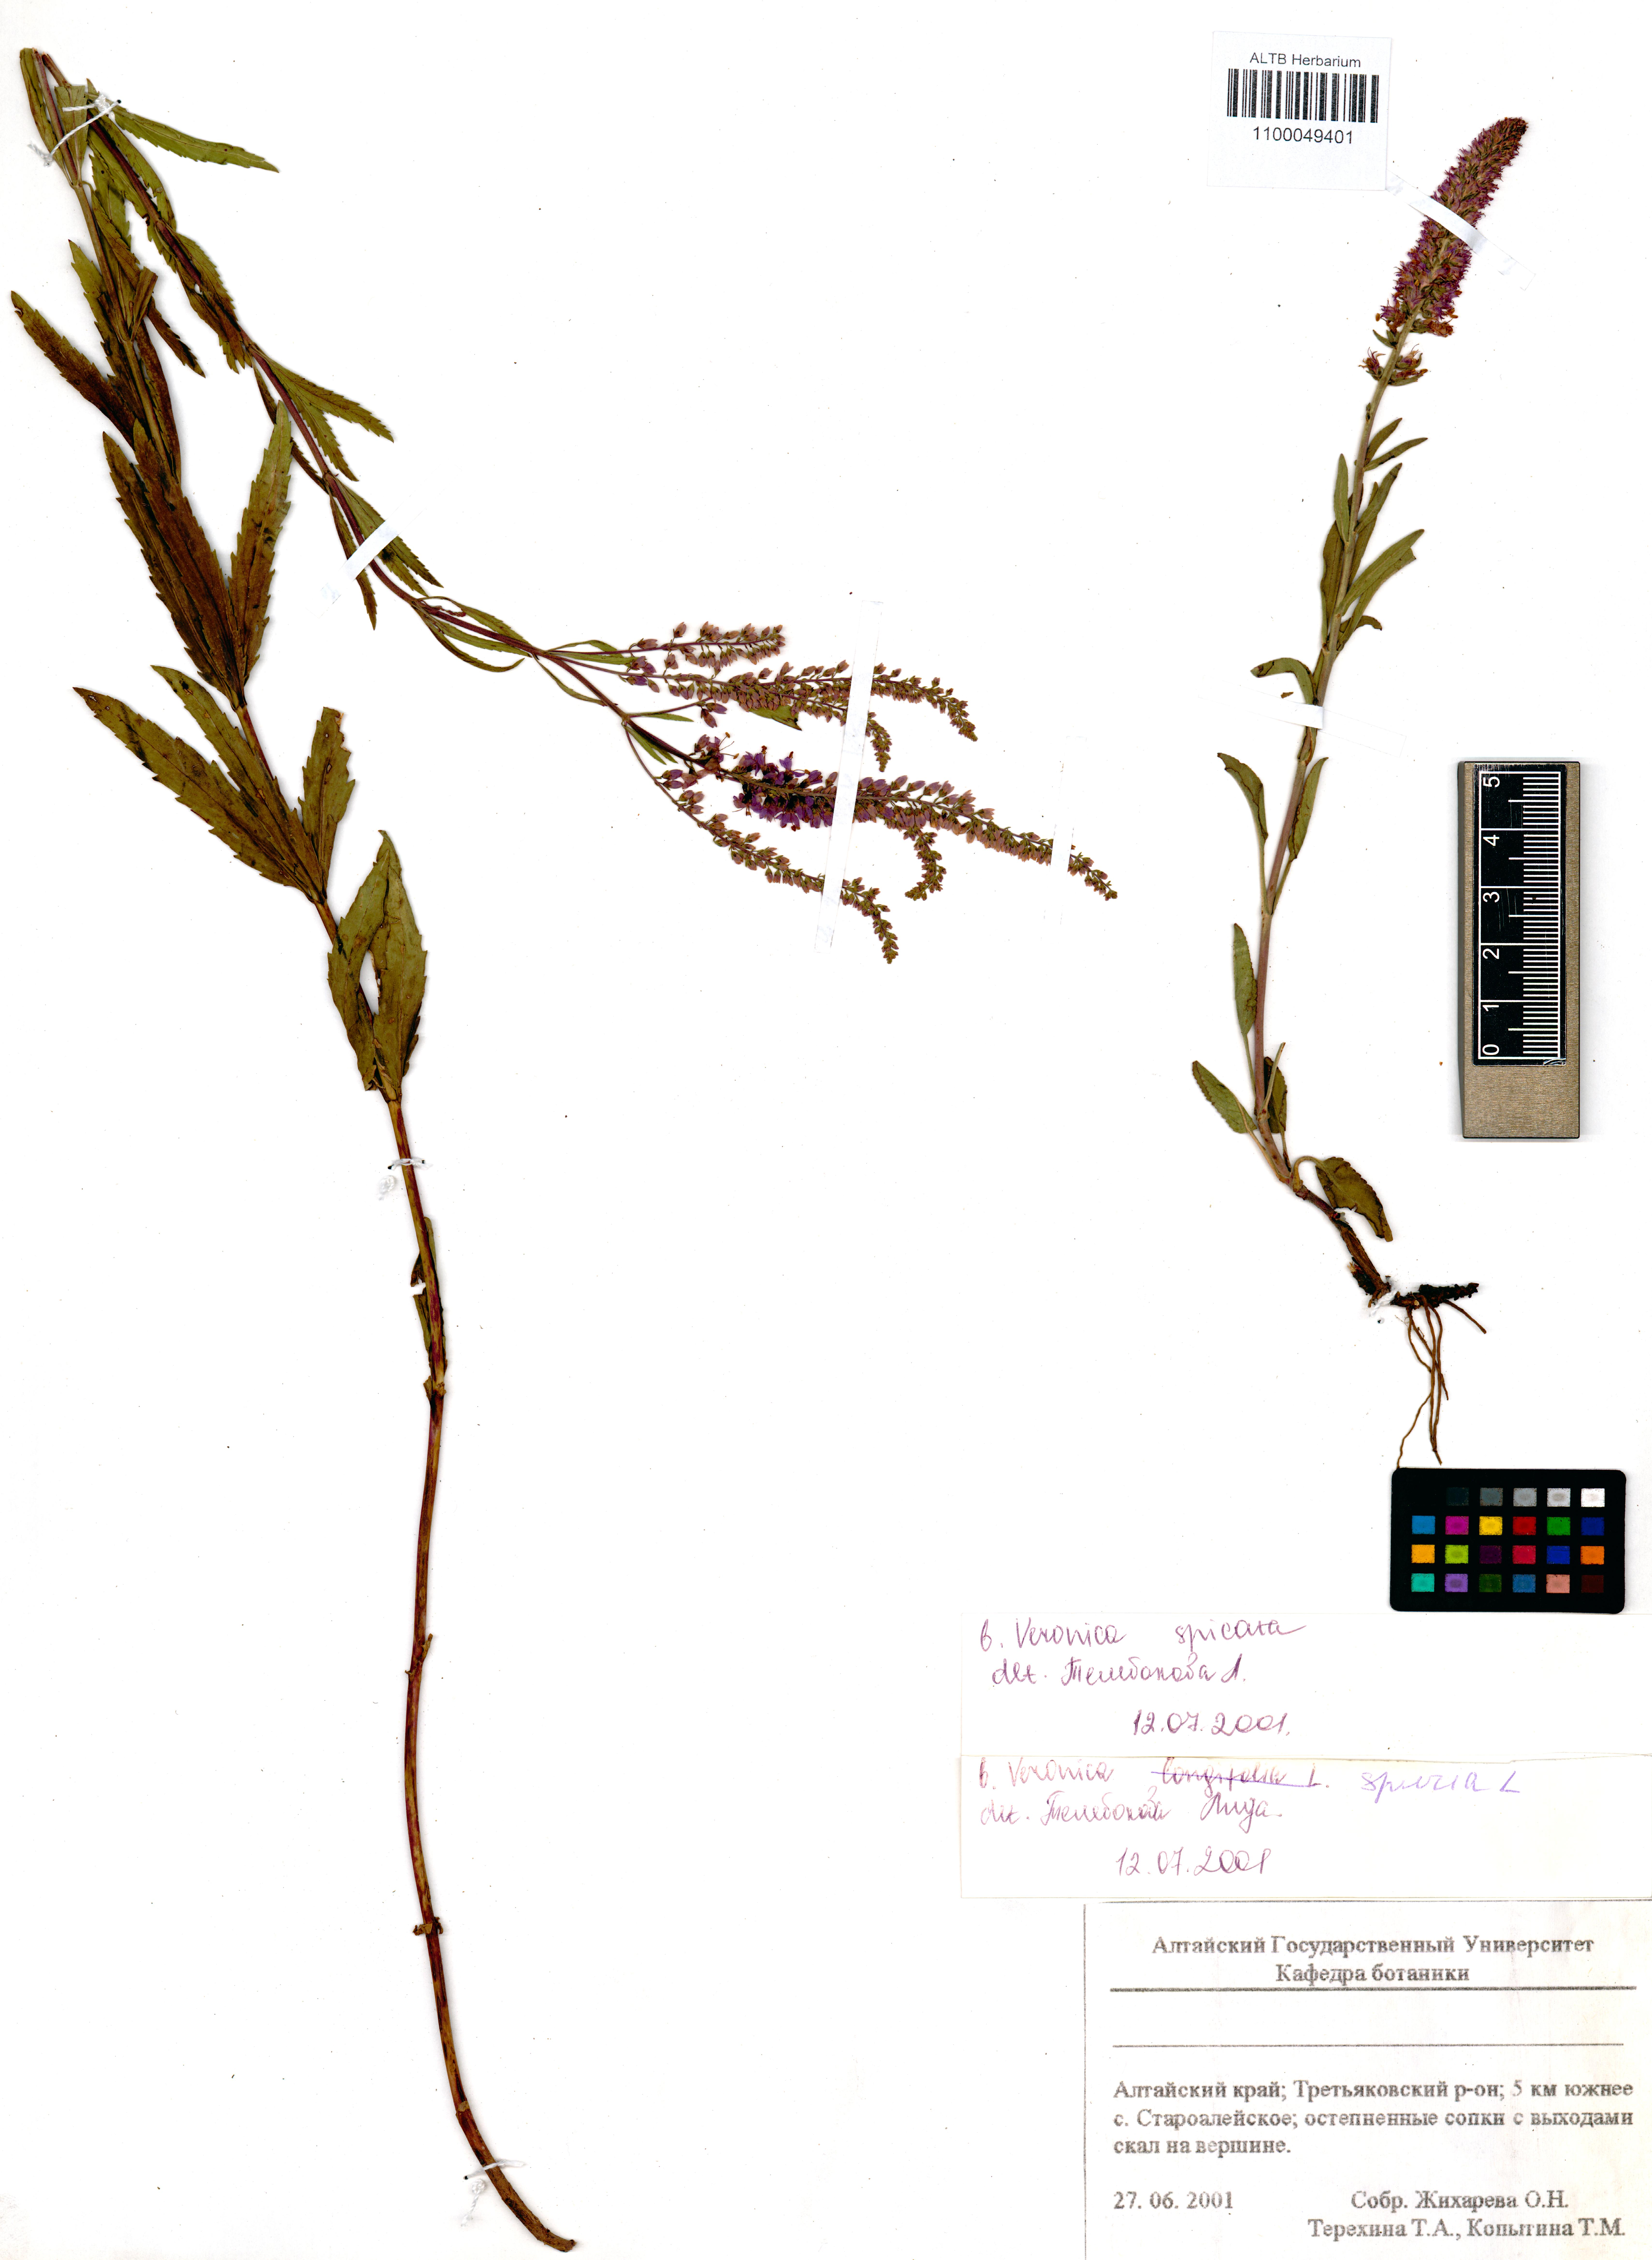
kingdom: Plantae
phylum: Tracheophyta
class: Magnoliopsida
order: Lamiales
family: Plantaginaceae
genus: Veronica
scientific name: Veronica spuria
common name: Bastard speedwell
